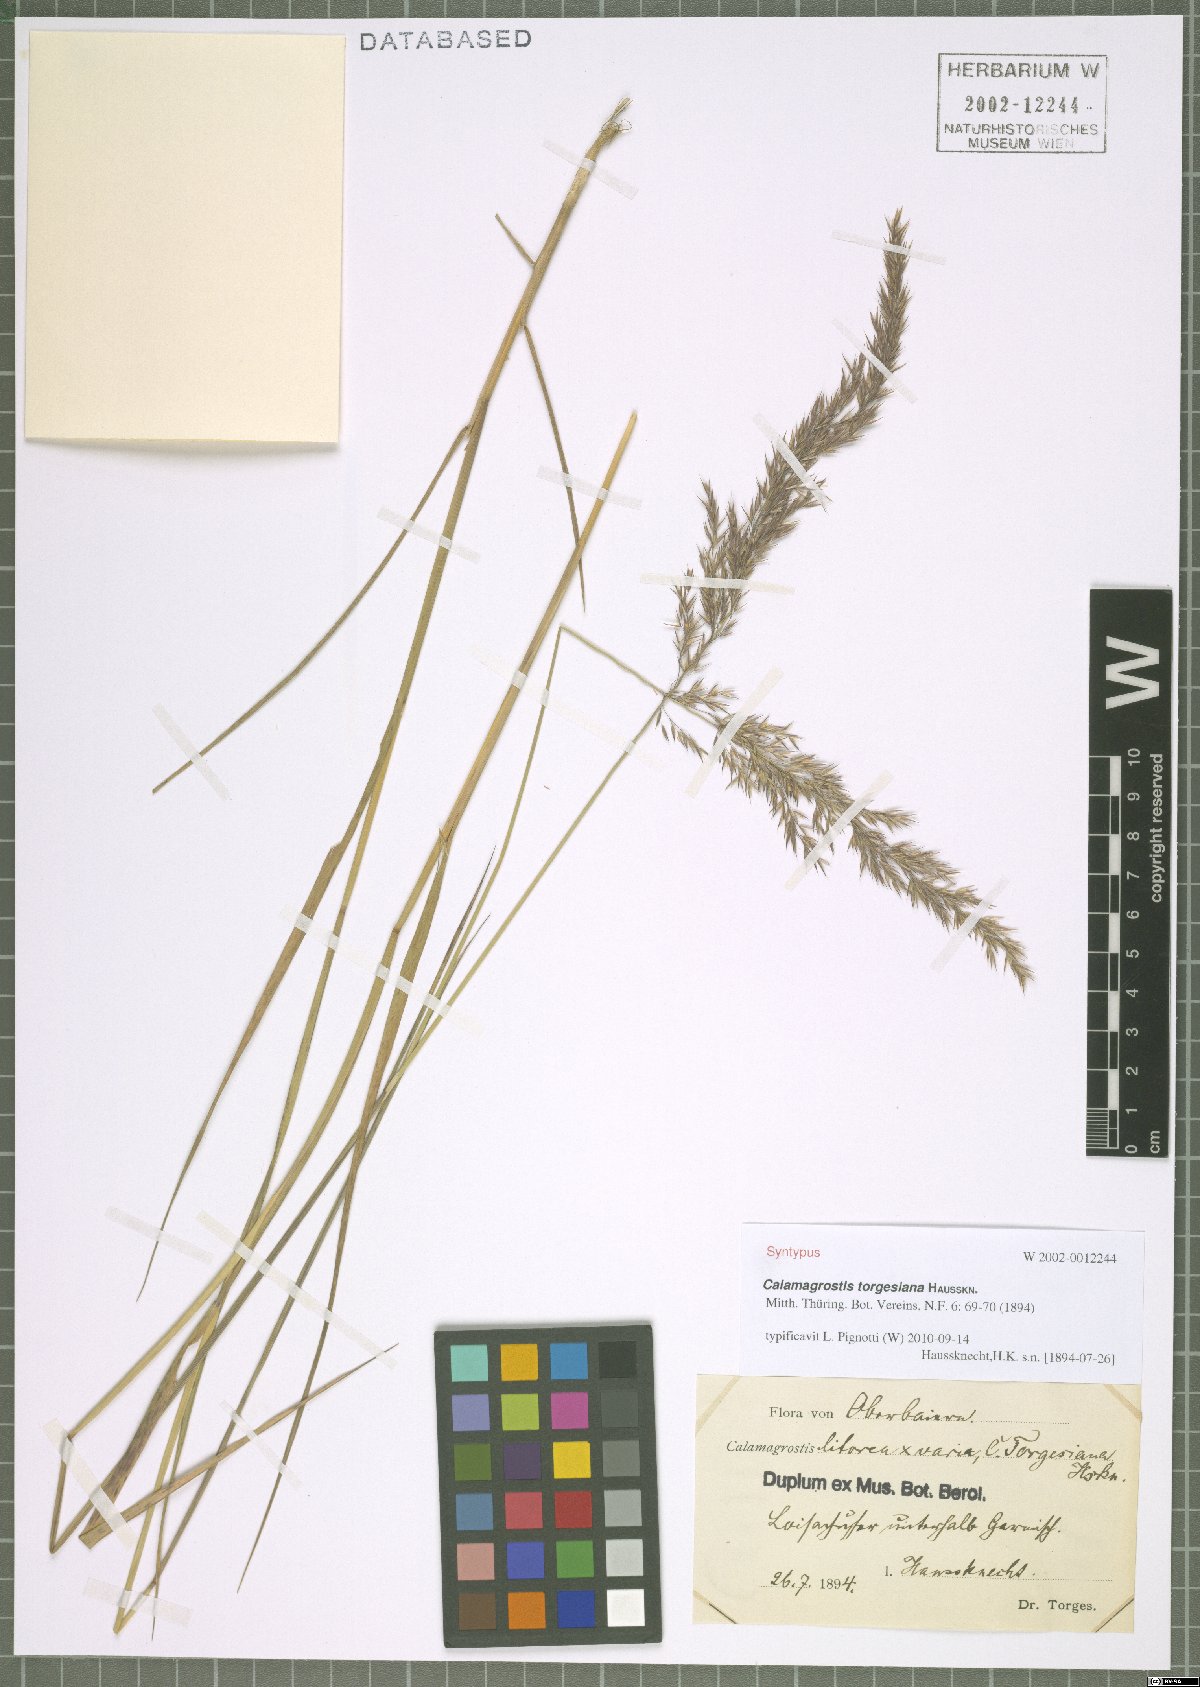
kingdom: Plantae
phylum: Tracheophyta
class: Liliopsida
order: Poales
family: Poaceae
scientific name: Poaceae
